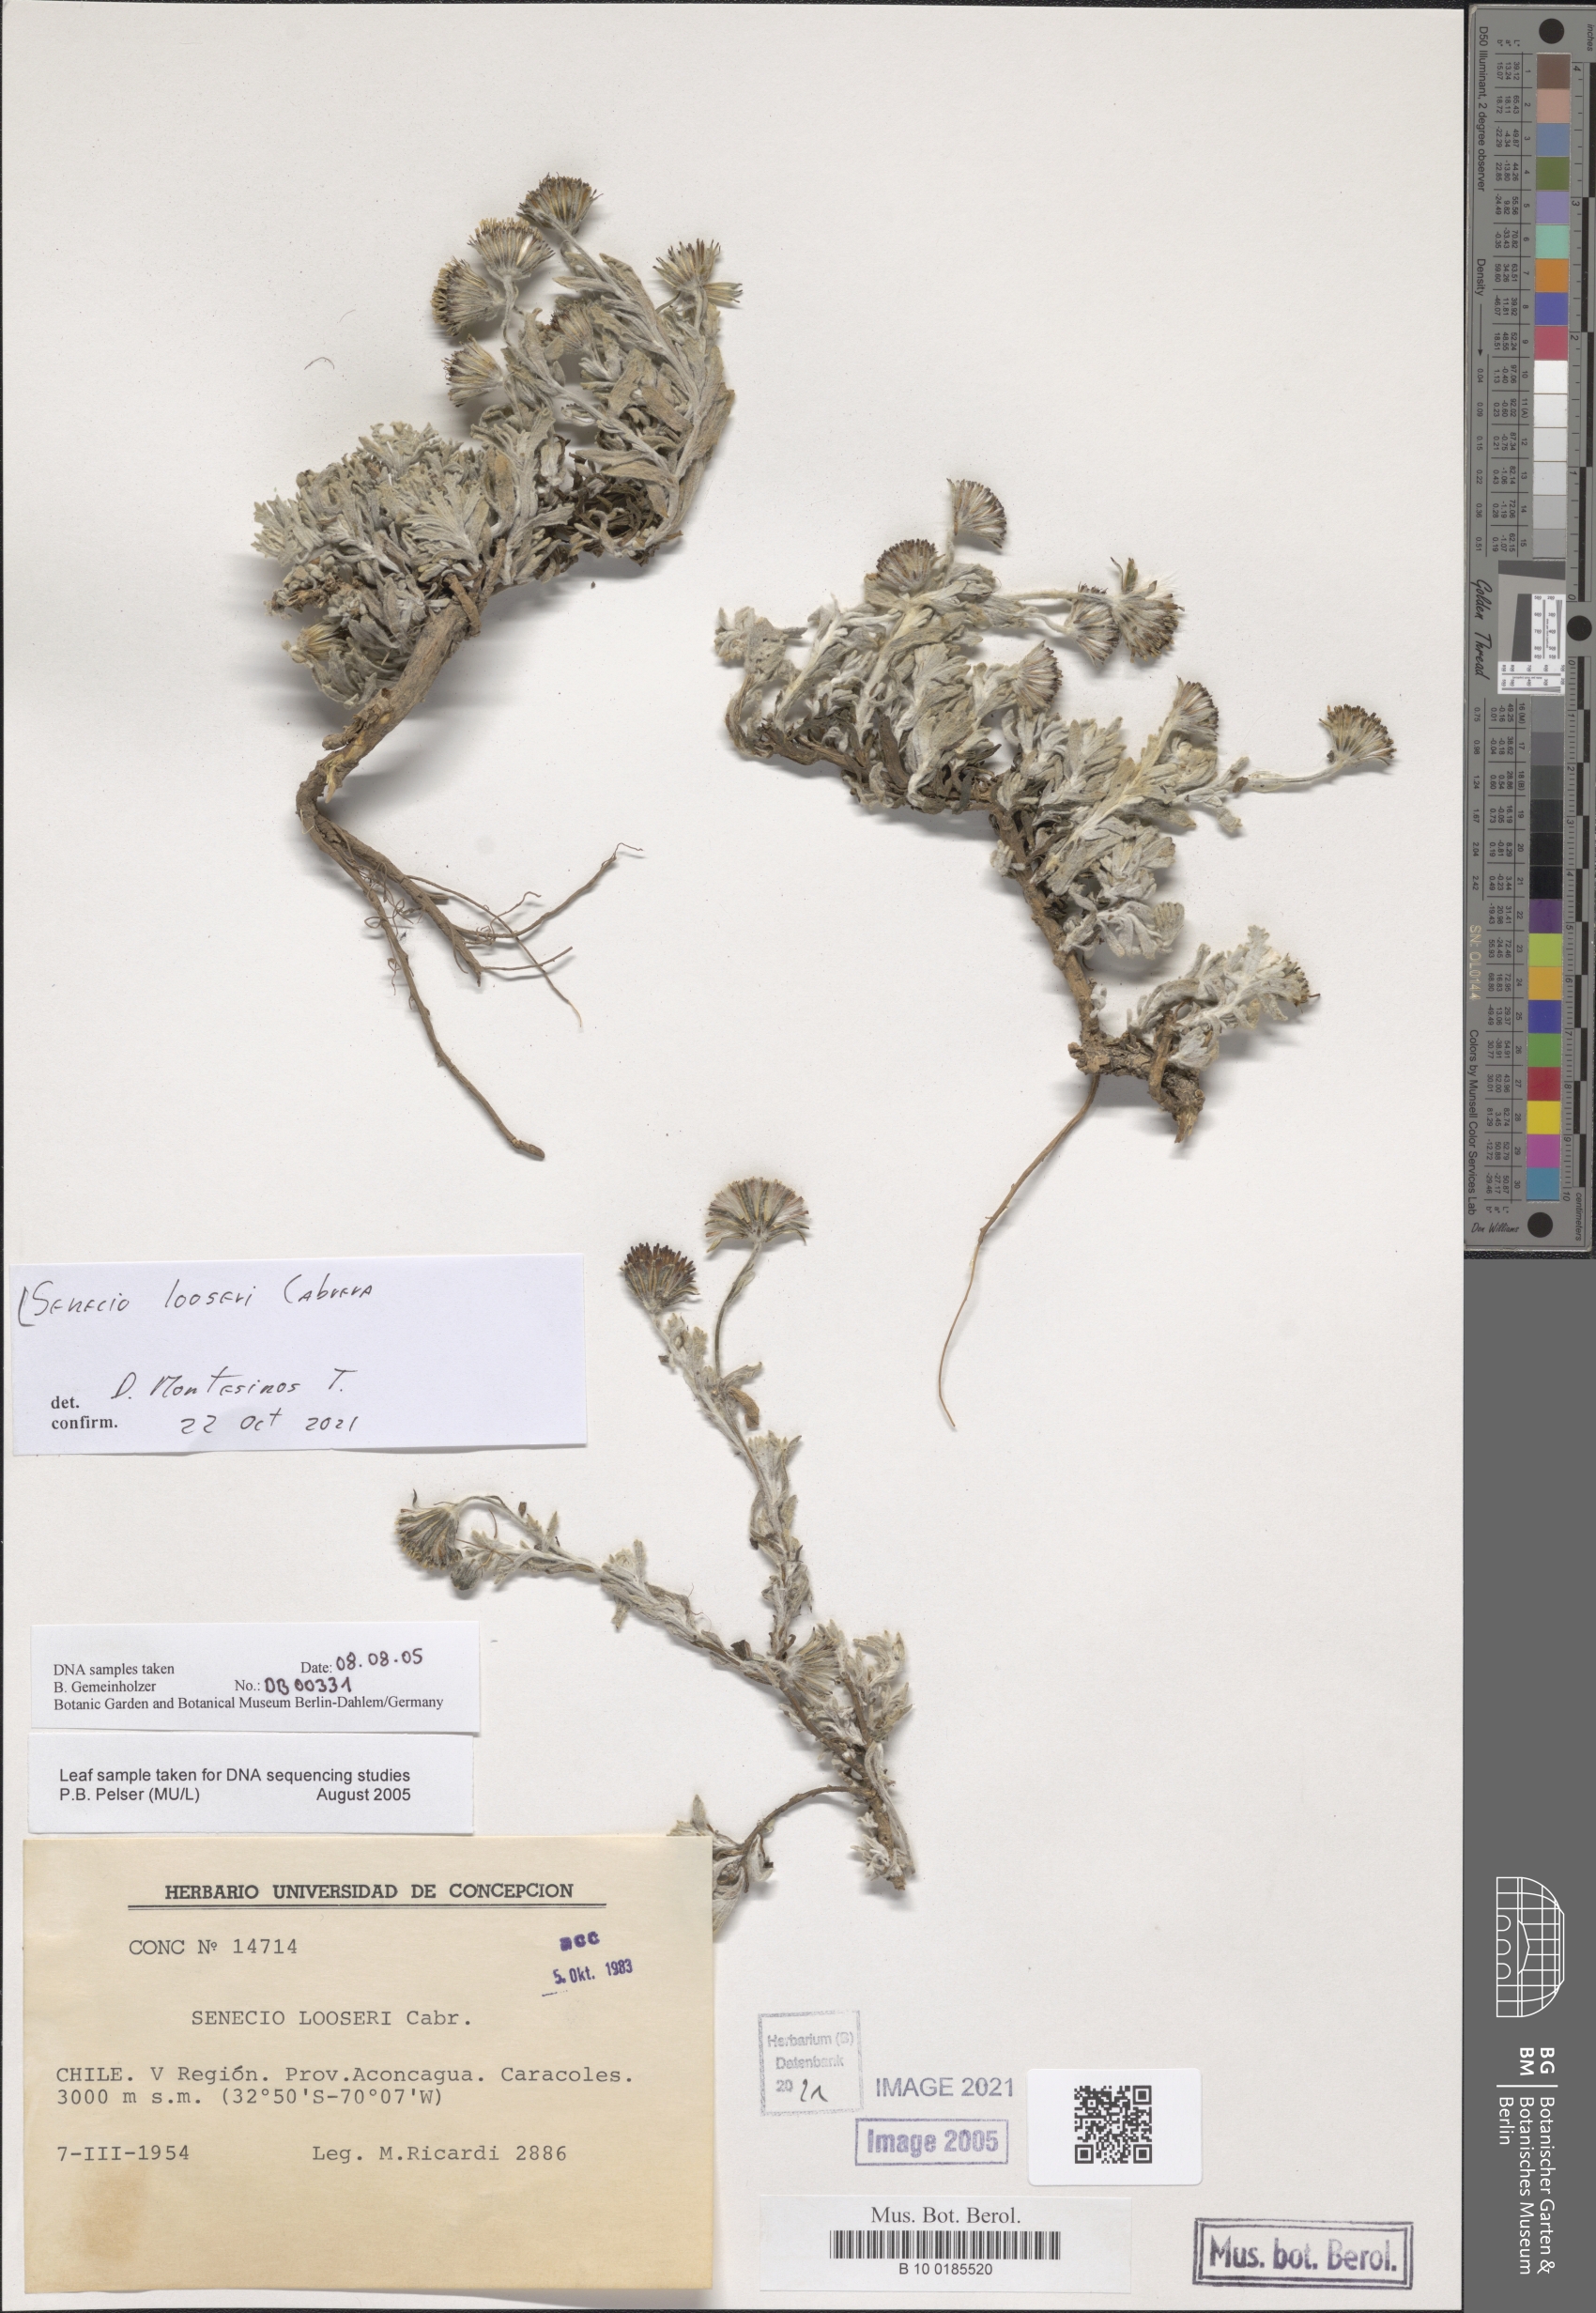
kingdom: Plantae
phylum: Tracheophyta
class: Magnoliopsida
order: Asterales
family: Asteraceae
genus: Senecio
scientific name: Senecio looseri
